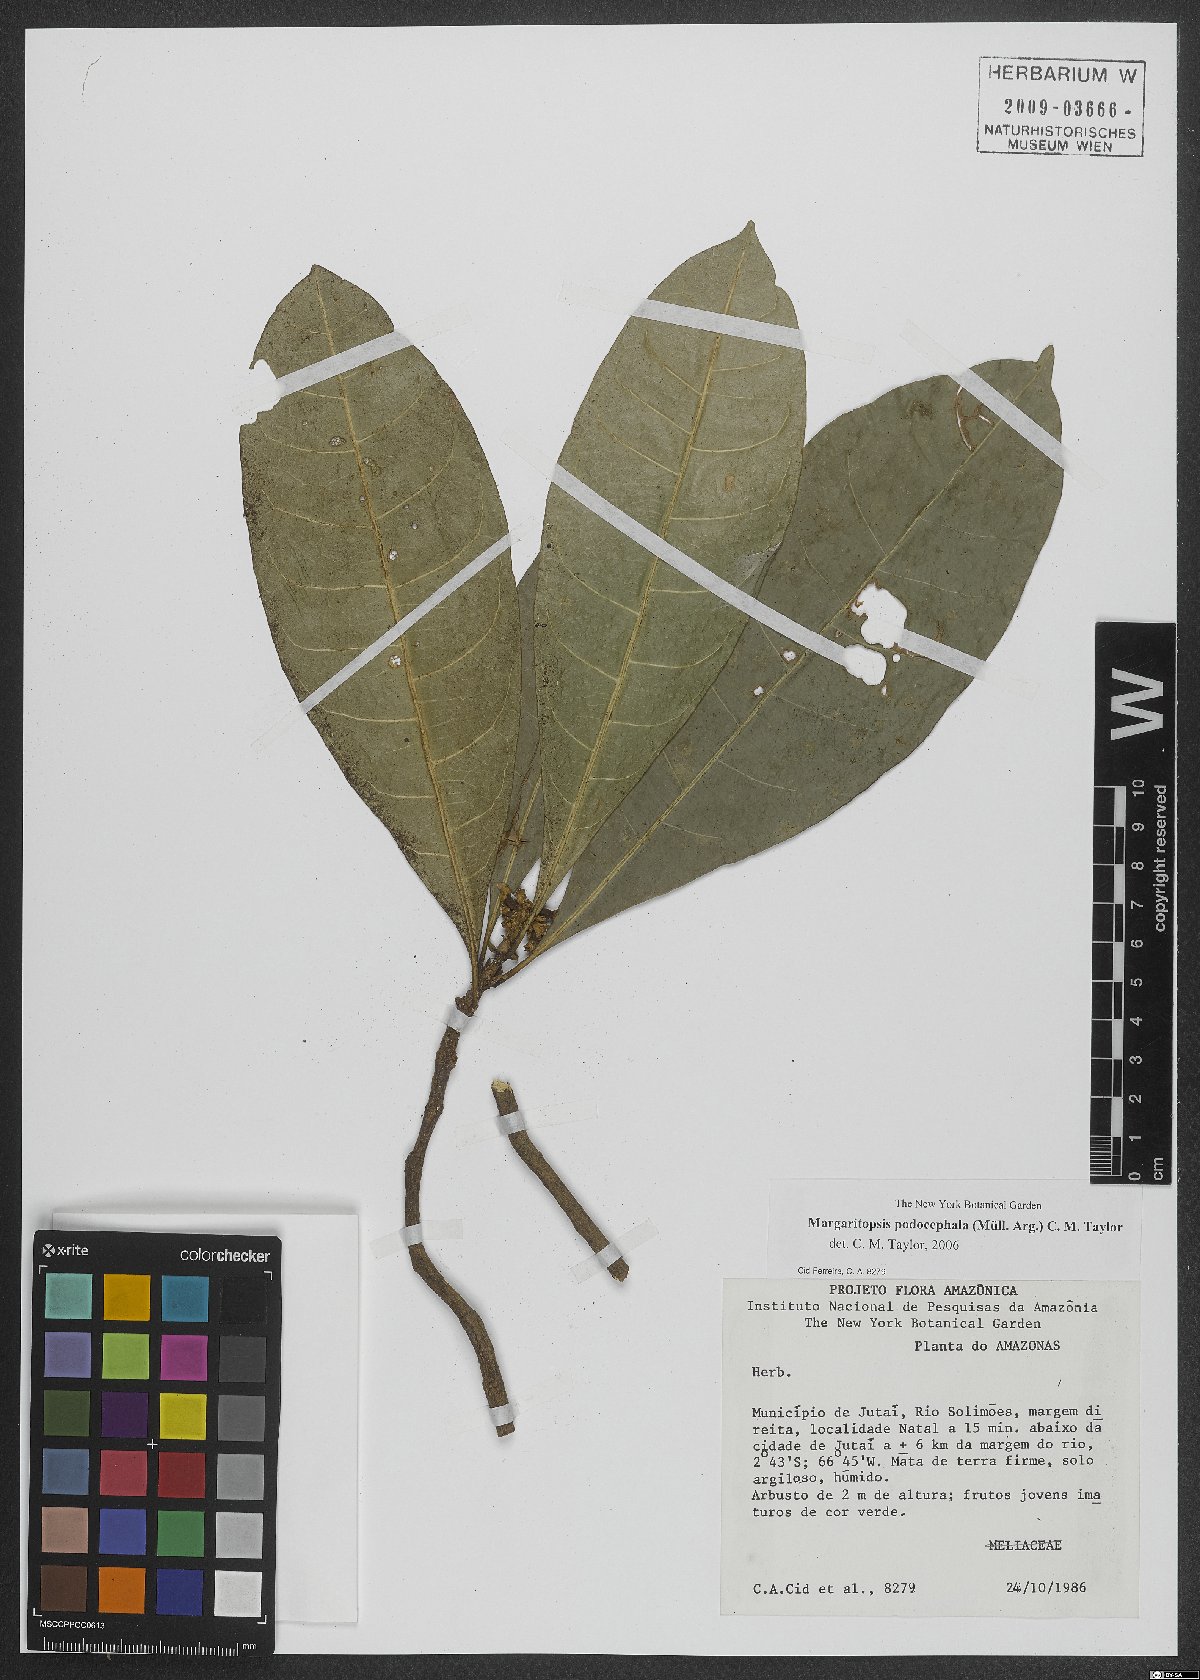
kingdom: Plantae
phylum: Tracheophyta
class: Magnoliopsida
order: Gentianales
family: Rubiaceae
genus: Eumachia
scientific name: Eumachia podocephala
